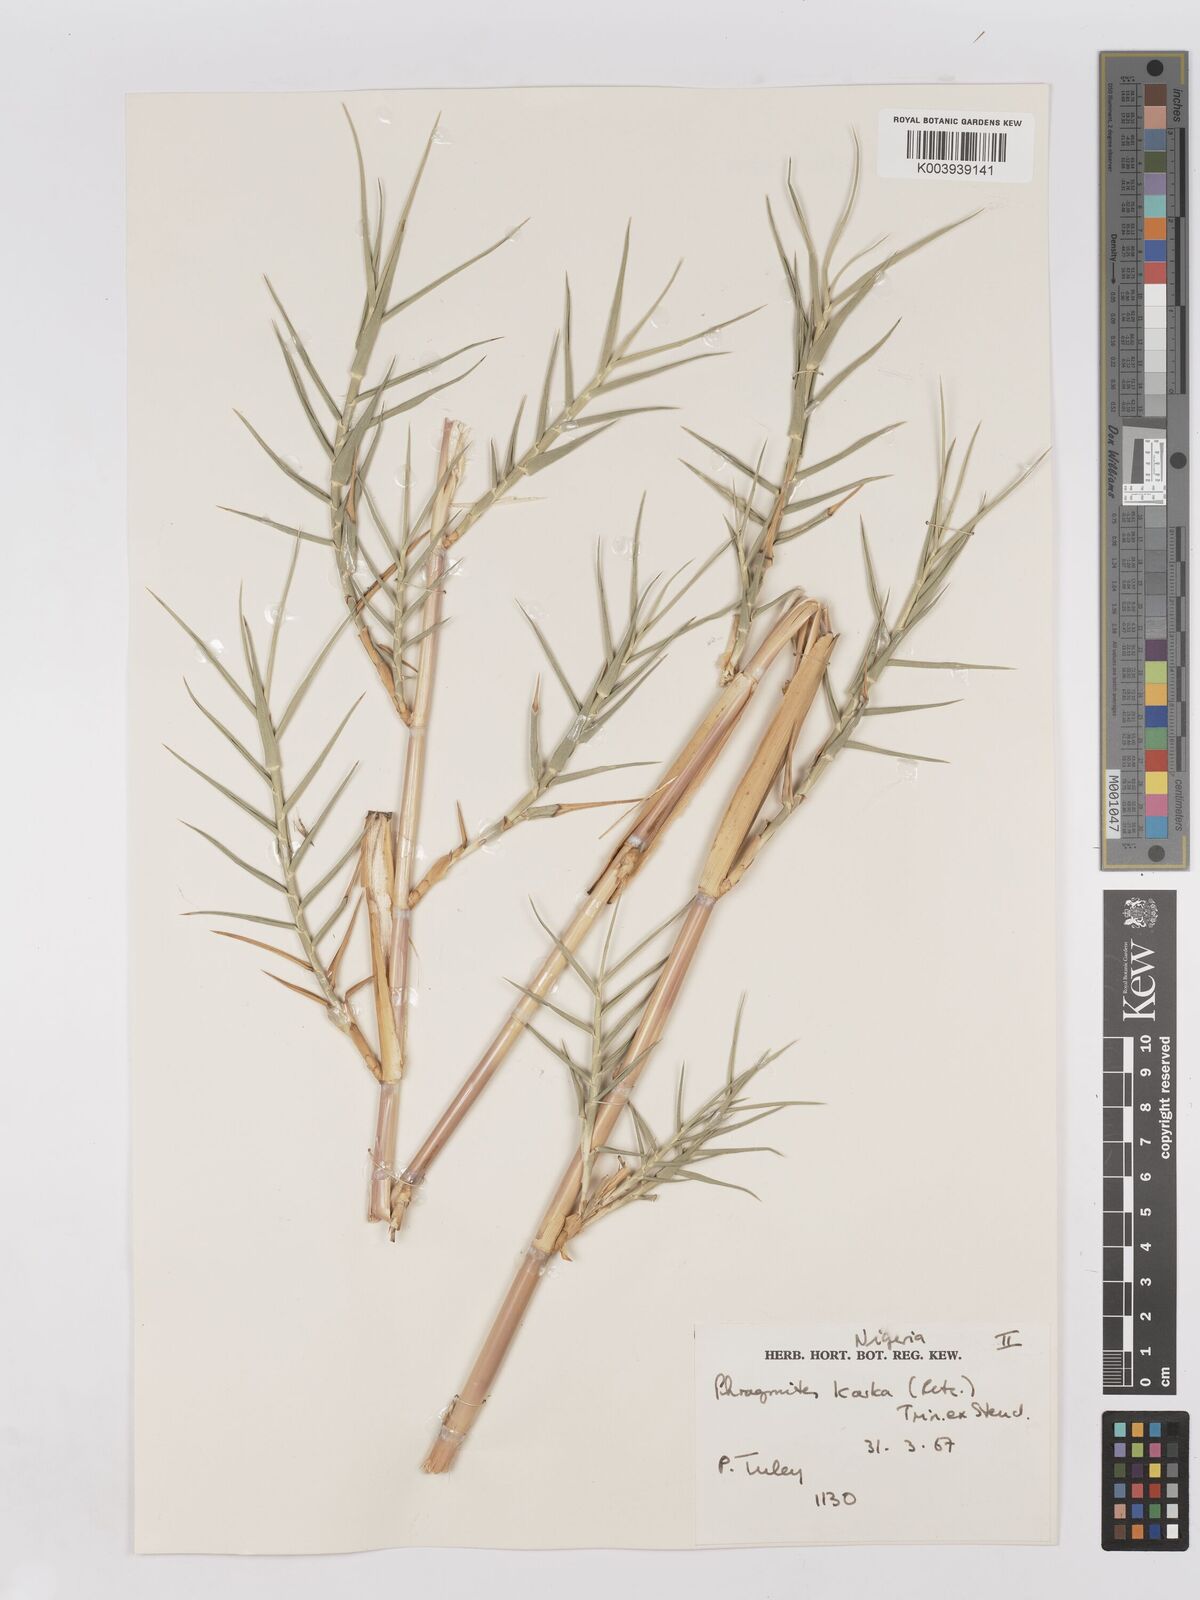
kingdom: Plantae
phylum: Tracheophyta
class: Liliopsida
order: Poales
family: Poaceae
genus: Phragmites
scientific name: Phragmites karka
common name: Tropical reed
